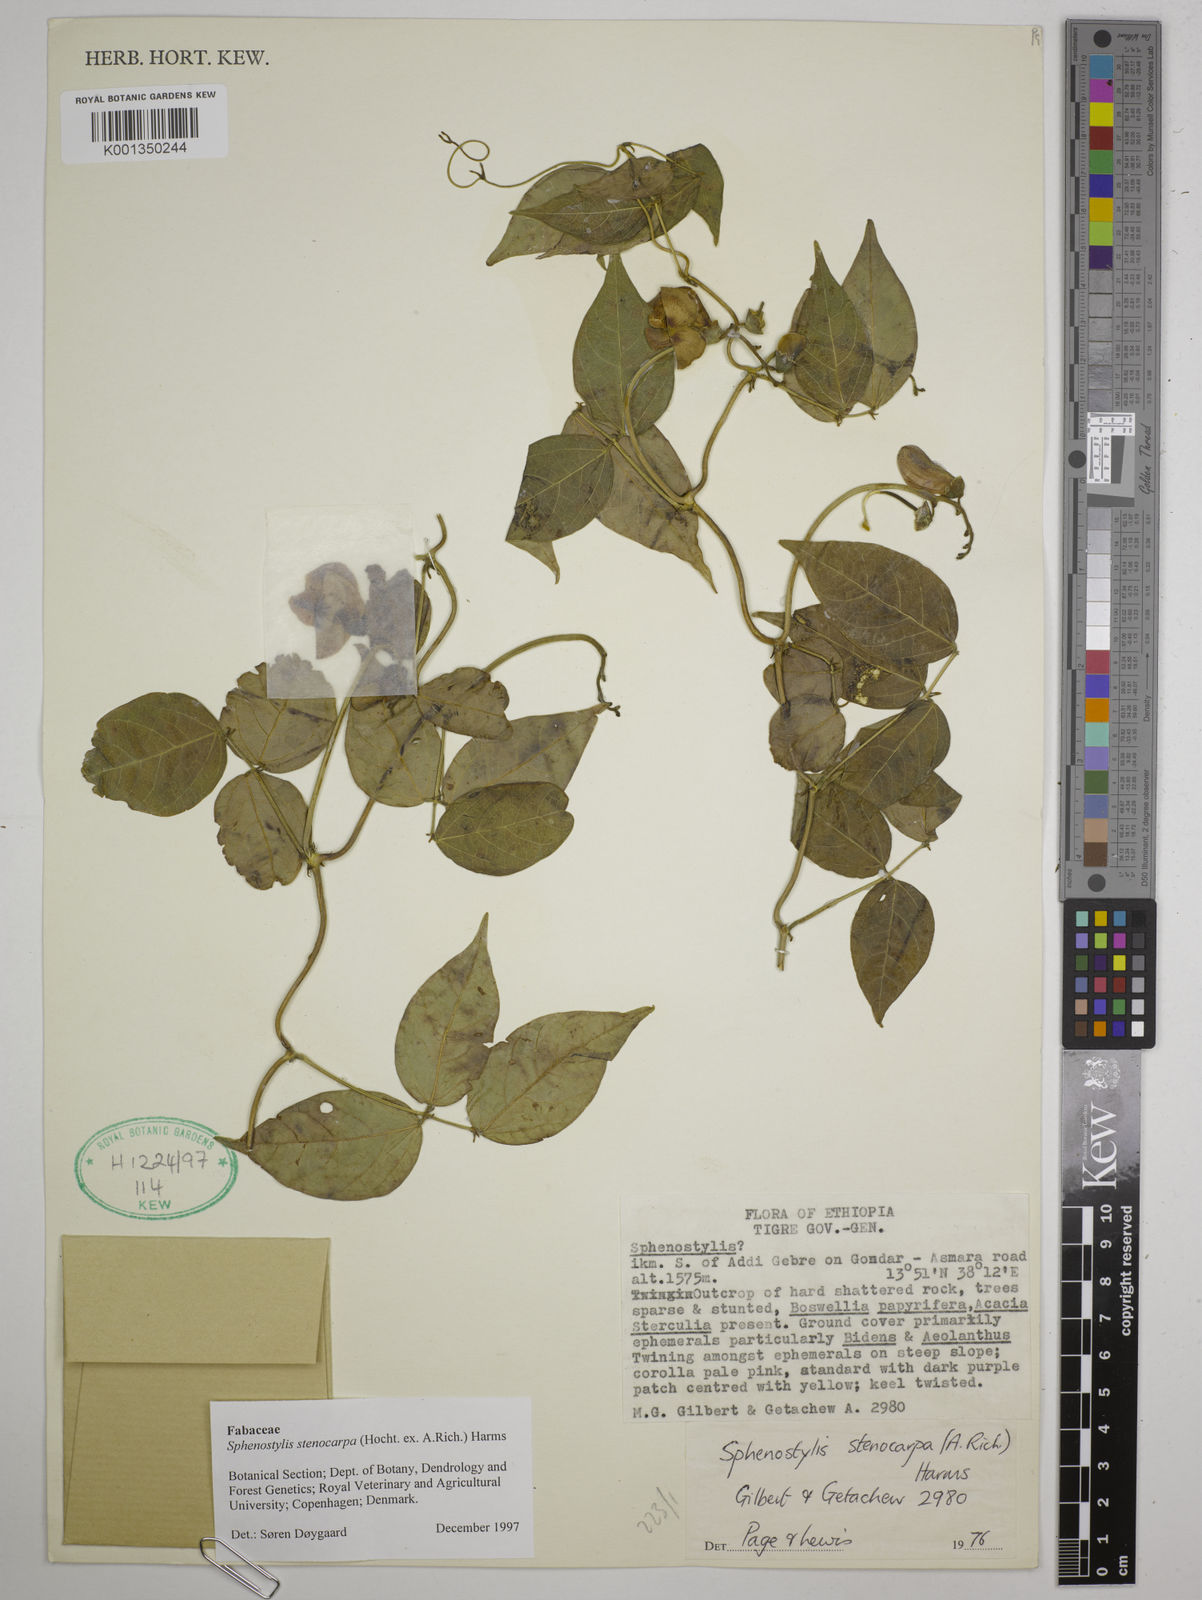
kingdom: Plantae
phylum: Tracheophyta
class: Magnoliopsida
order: Fabales
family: Fabaceae
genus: Sphenostylis
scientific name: Sphenostylis stenocarpa
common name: Yam-pea
